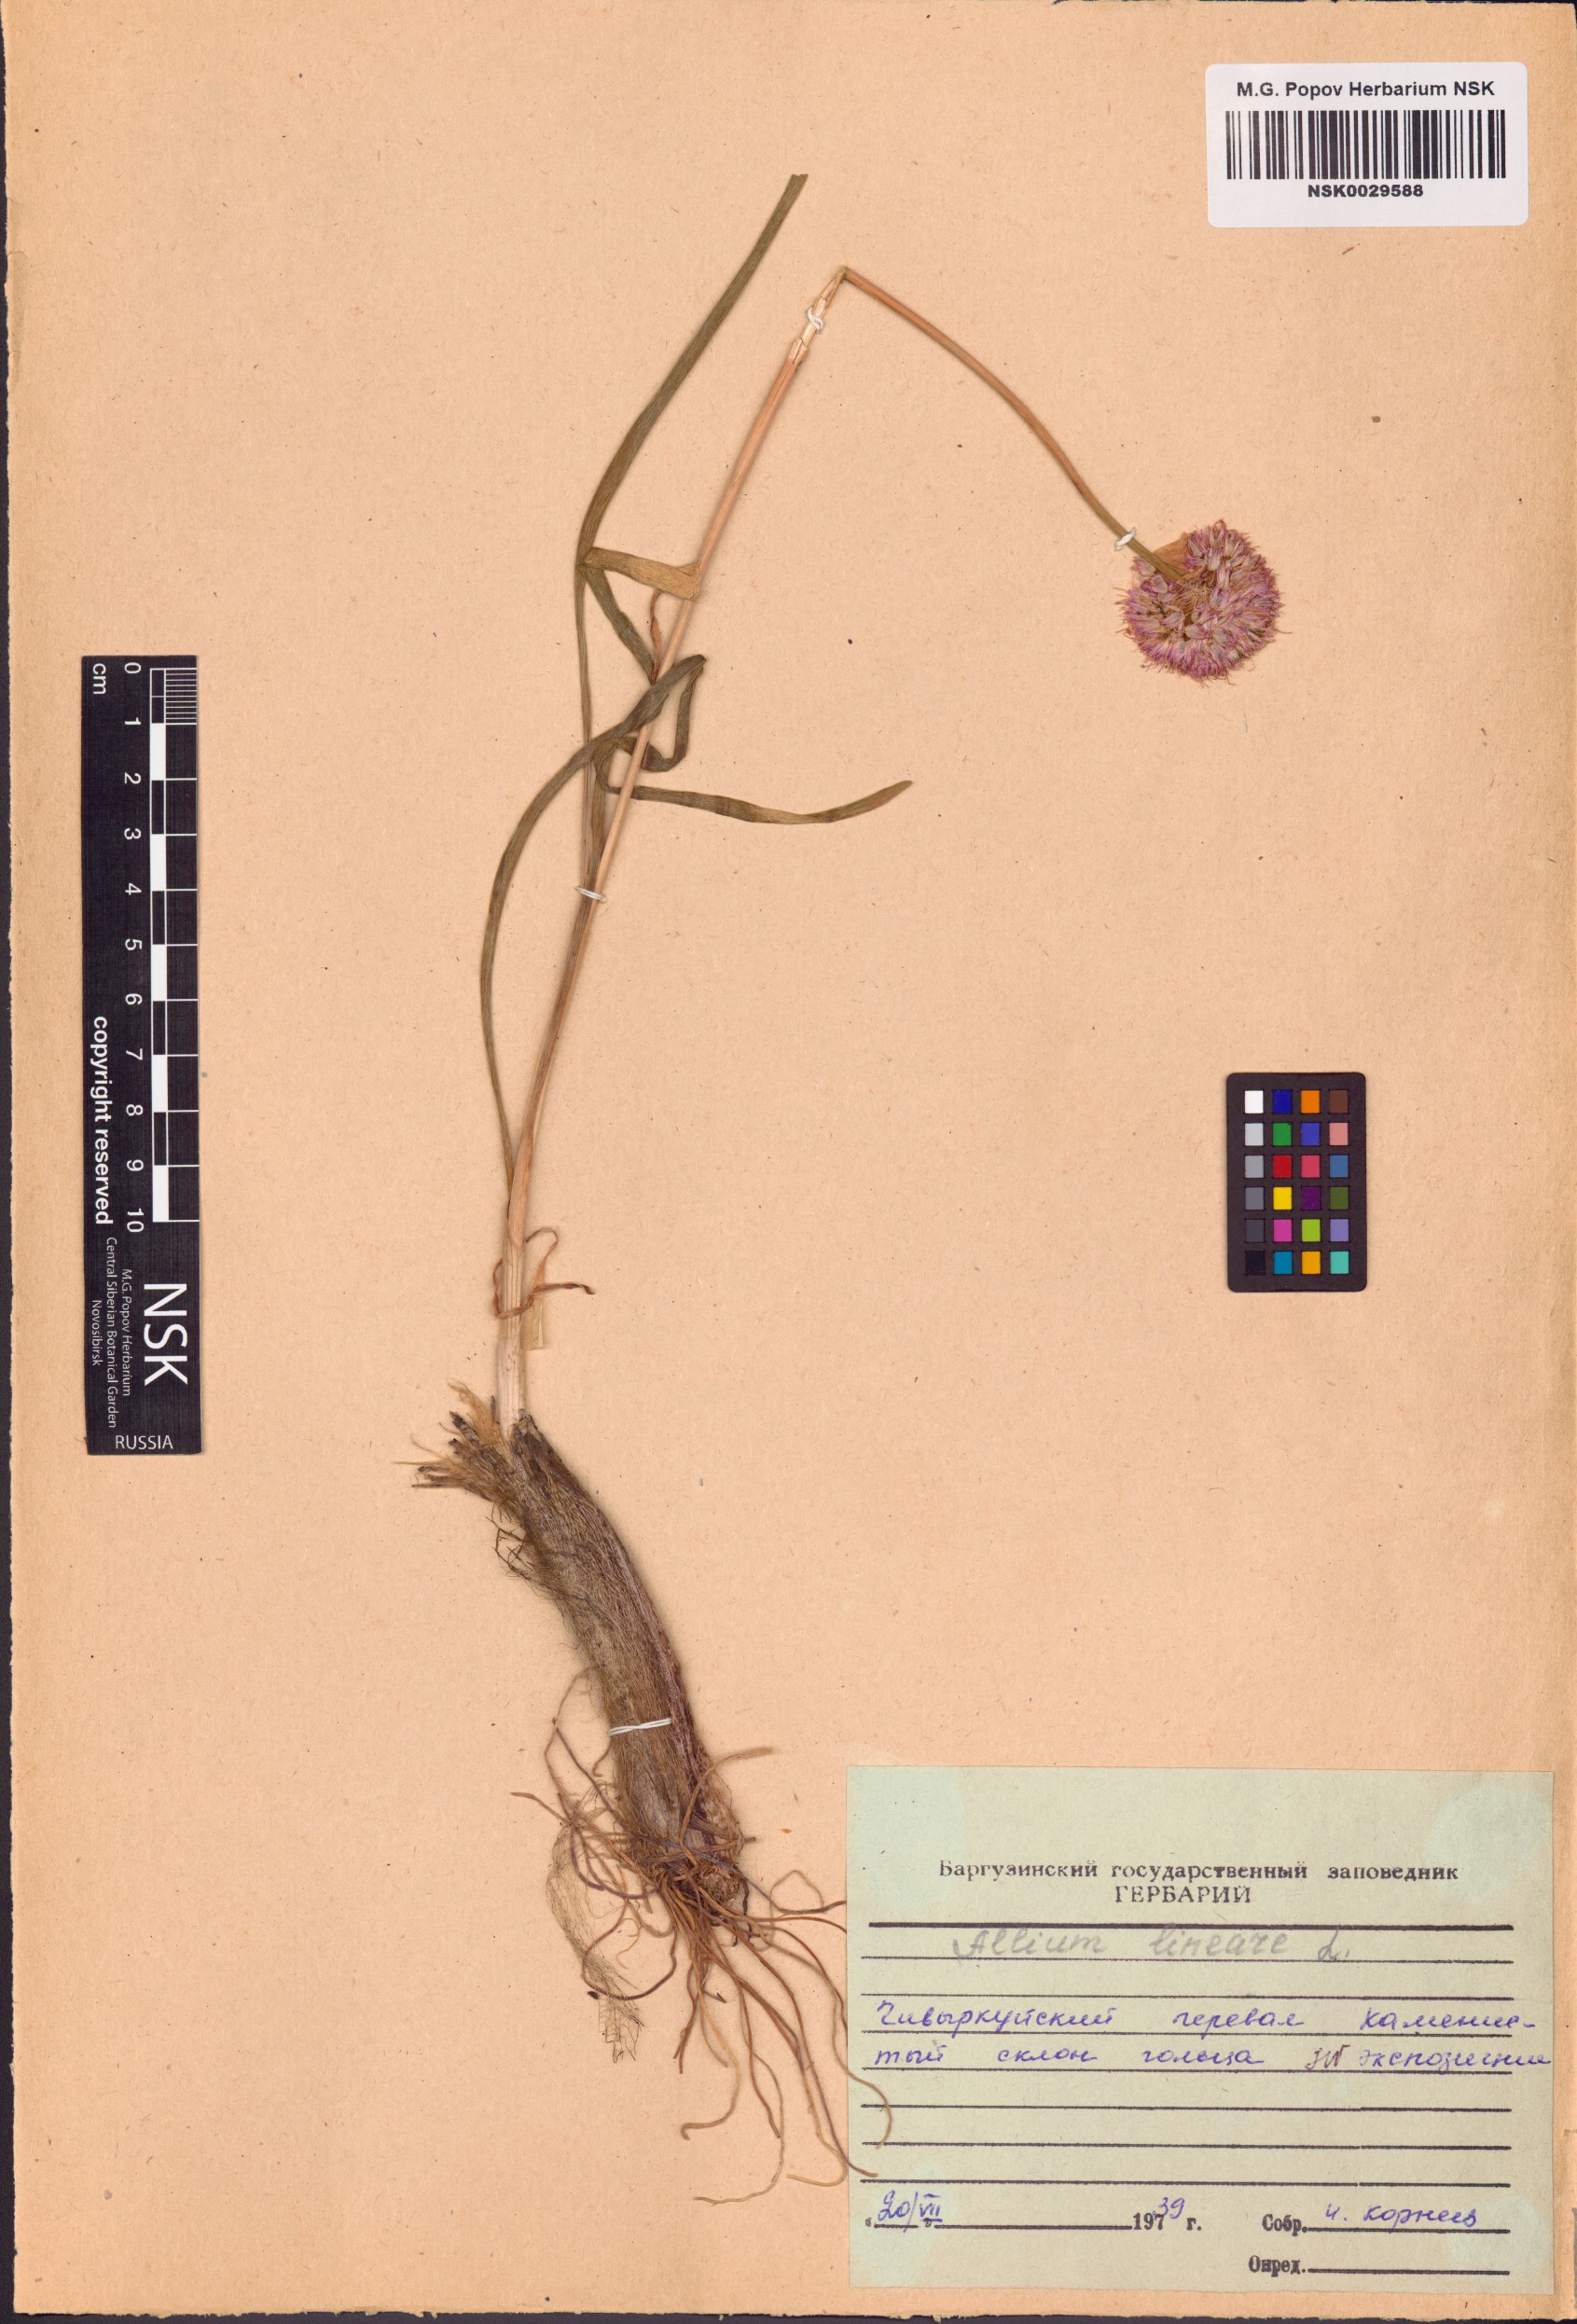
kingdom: Plantae
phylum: Tracheophyta
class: Liliopsida
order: Asparagales
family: Amaryllidaceae
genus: Allium
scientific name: Allium lineare
